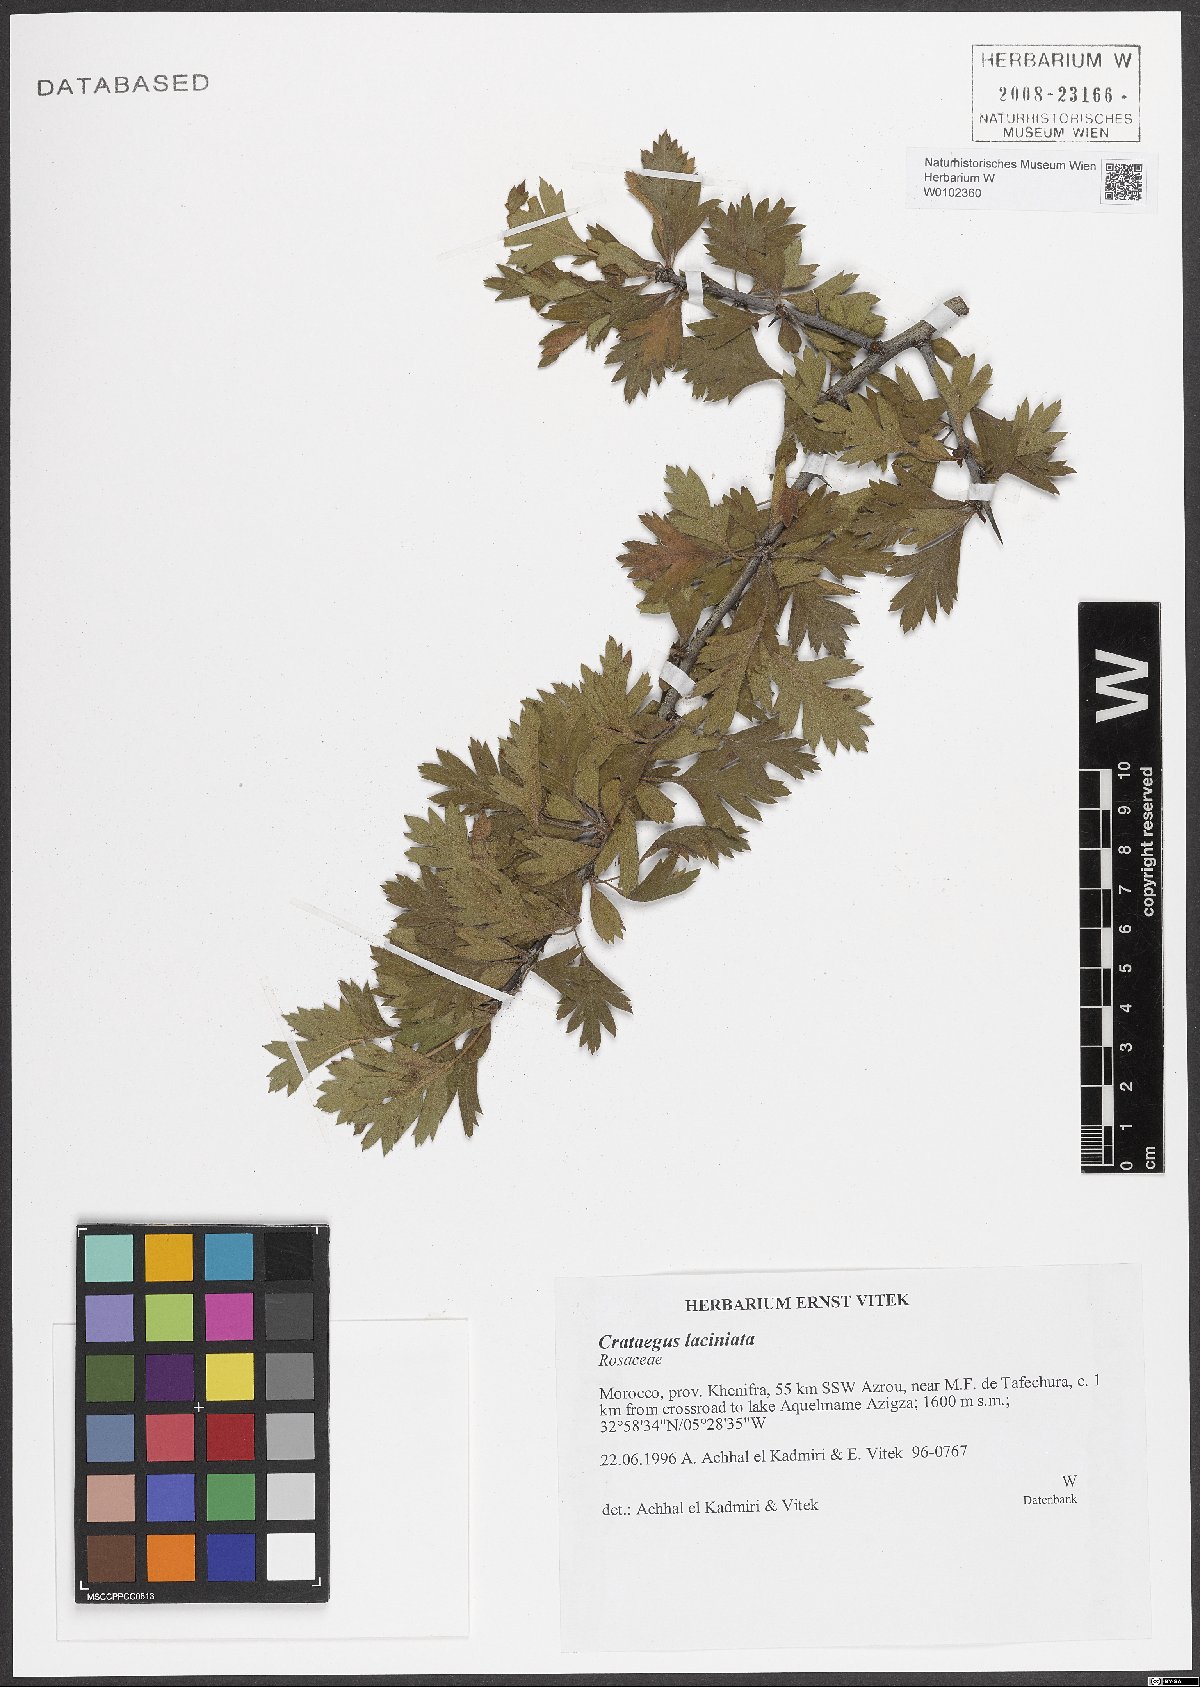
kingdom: Plantae
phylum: Tracheophyta
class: Magnoliopsida
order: Rosales
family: Rosaceae
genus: Crataegus
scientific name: Crataegus laciniata
